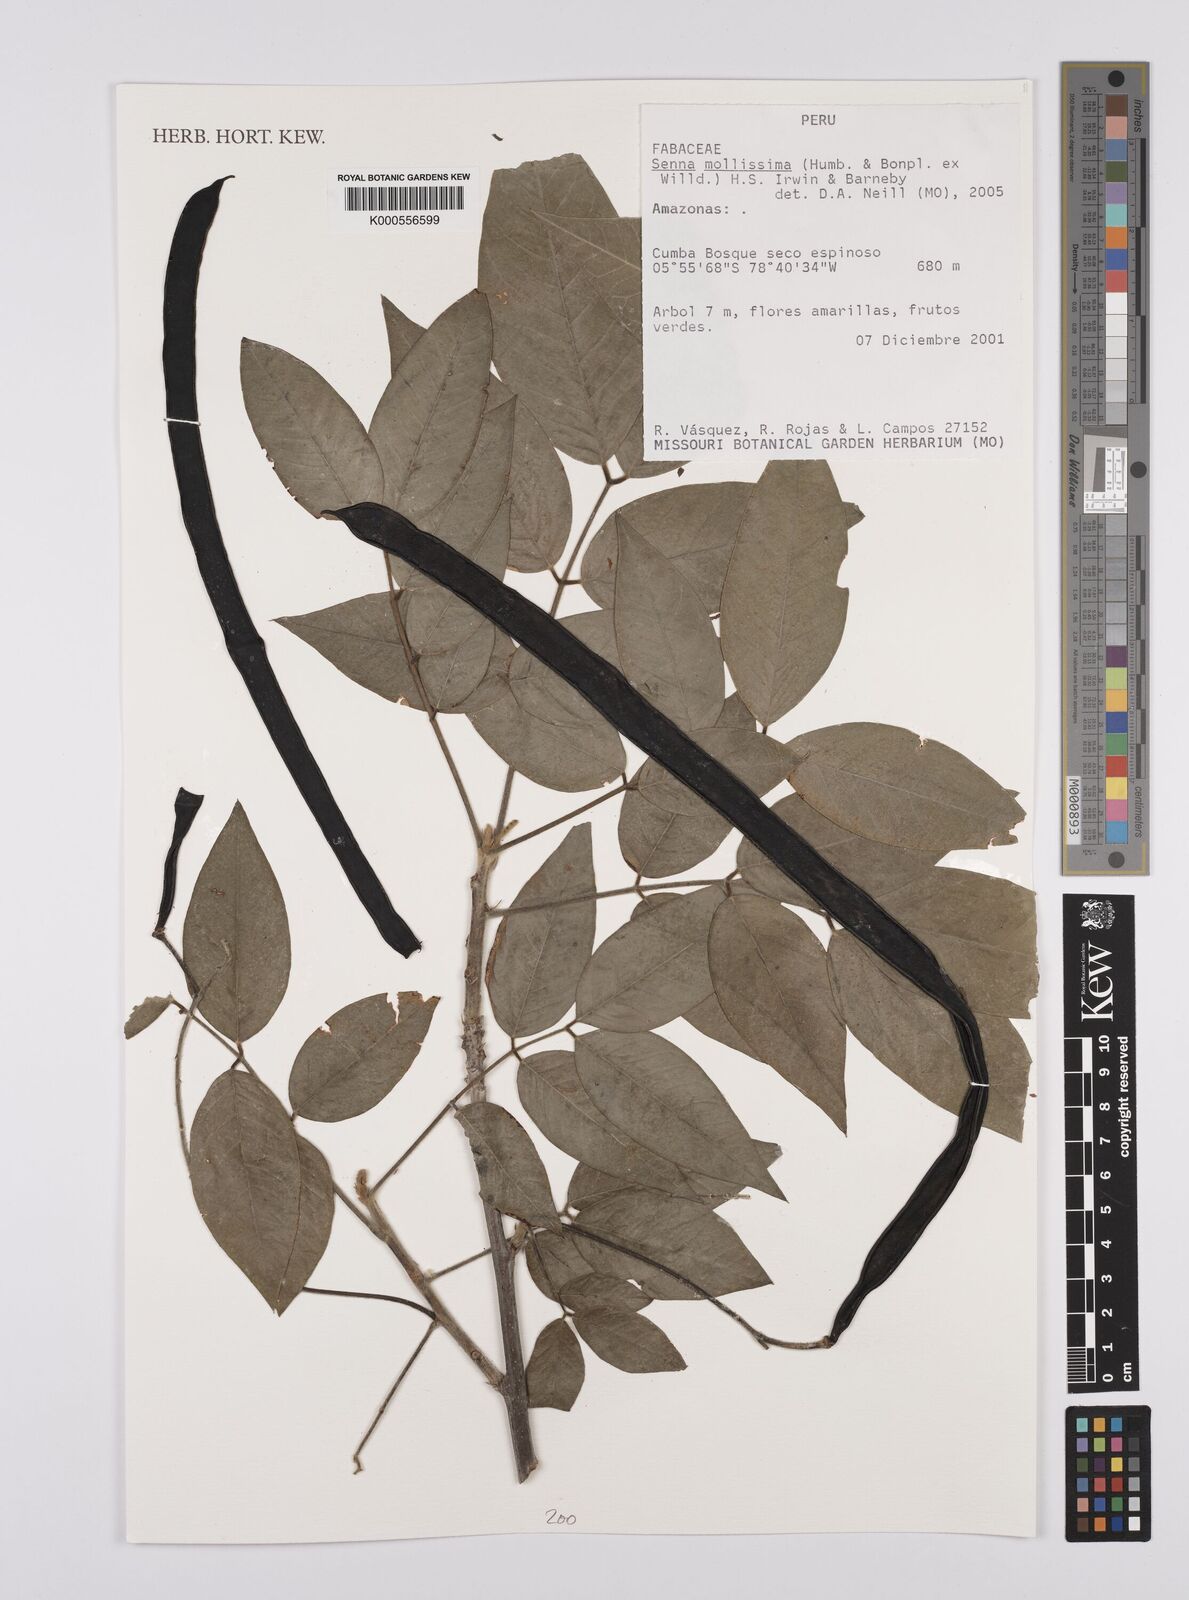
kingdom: Plantae
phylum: Tracheophyta
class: Magnoliopsida
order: Fabales
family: Fabaceae
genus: Senna
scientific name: Senna mollissima
